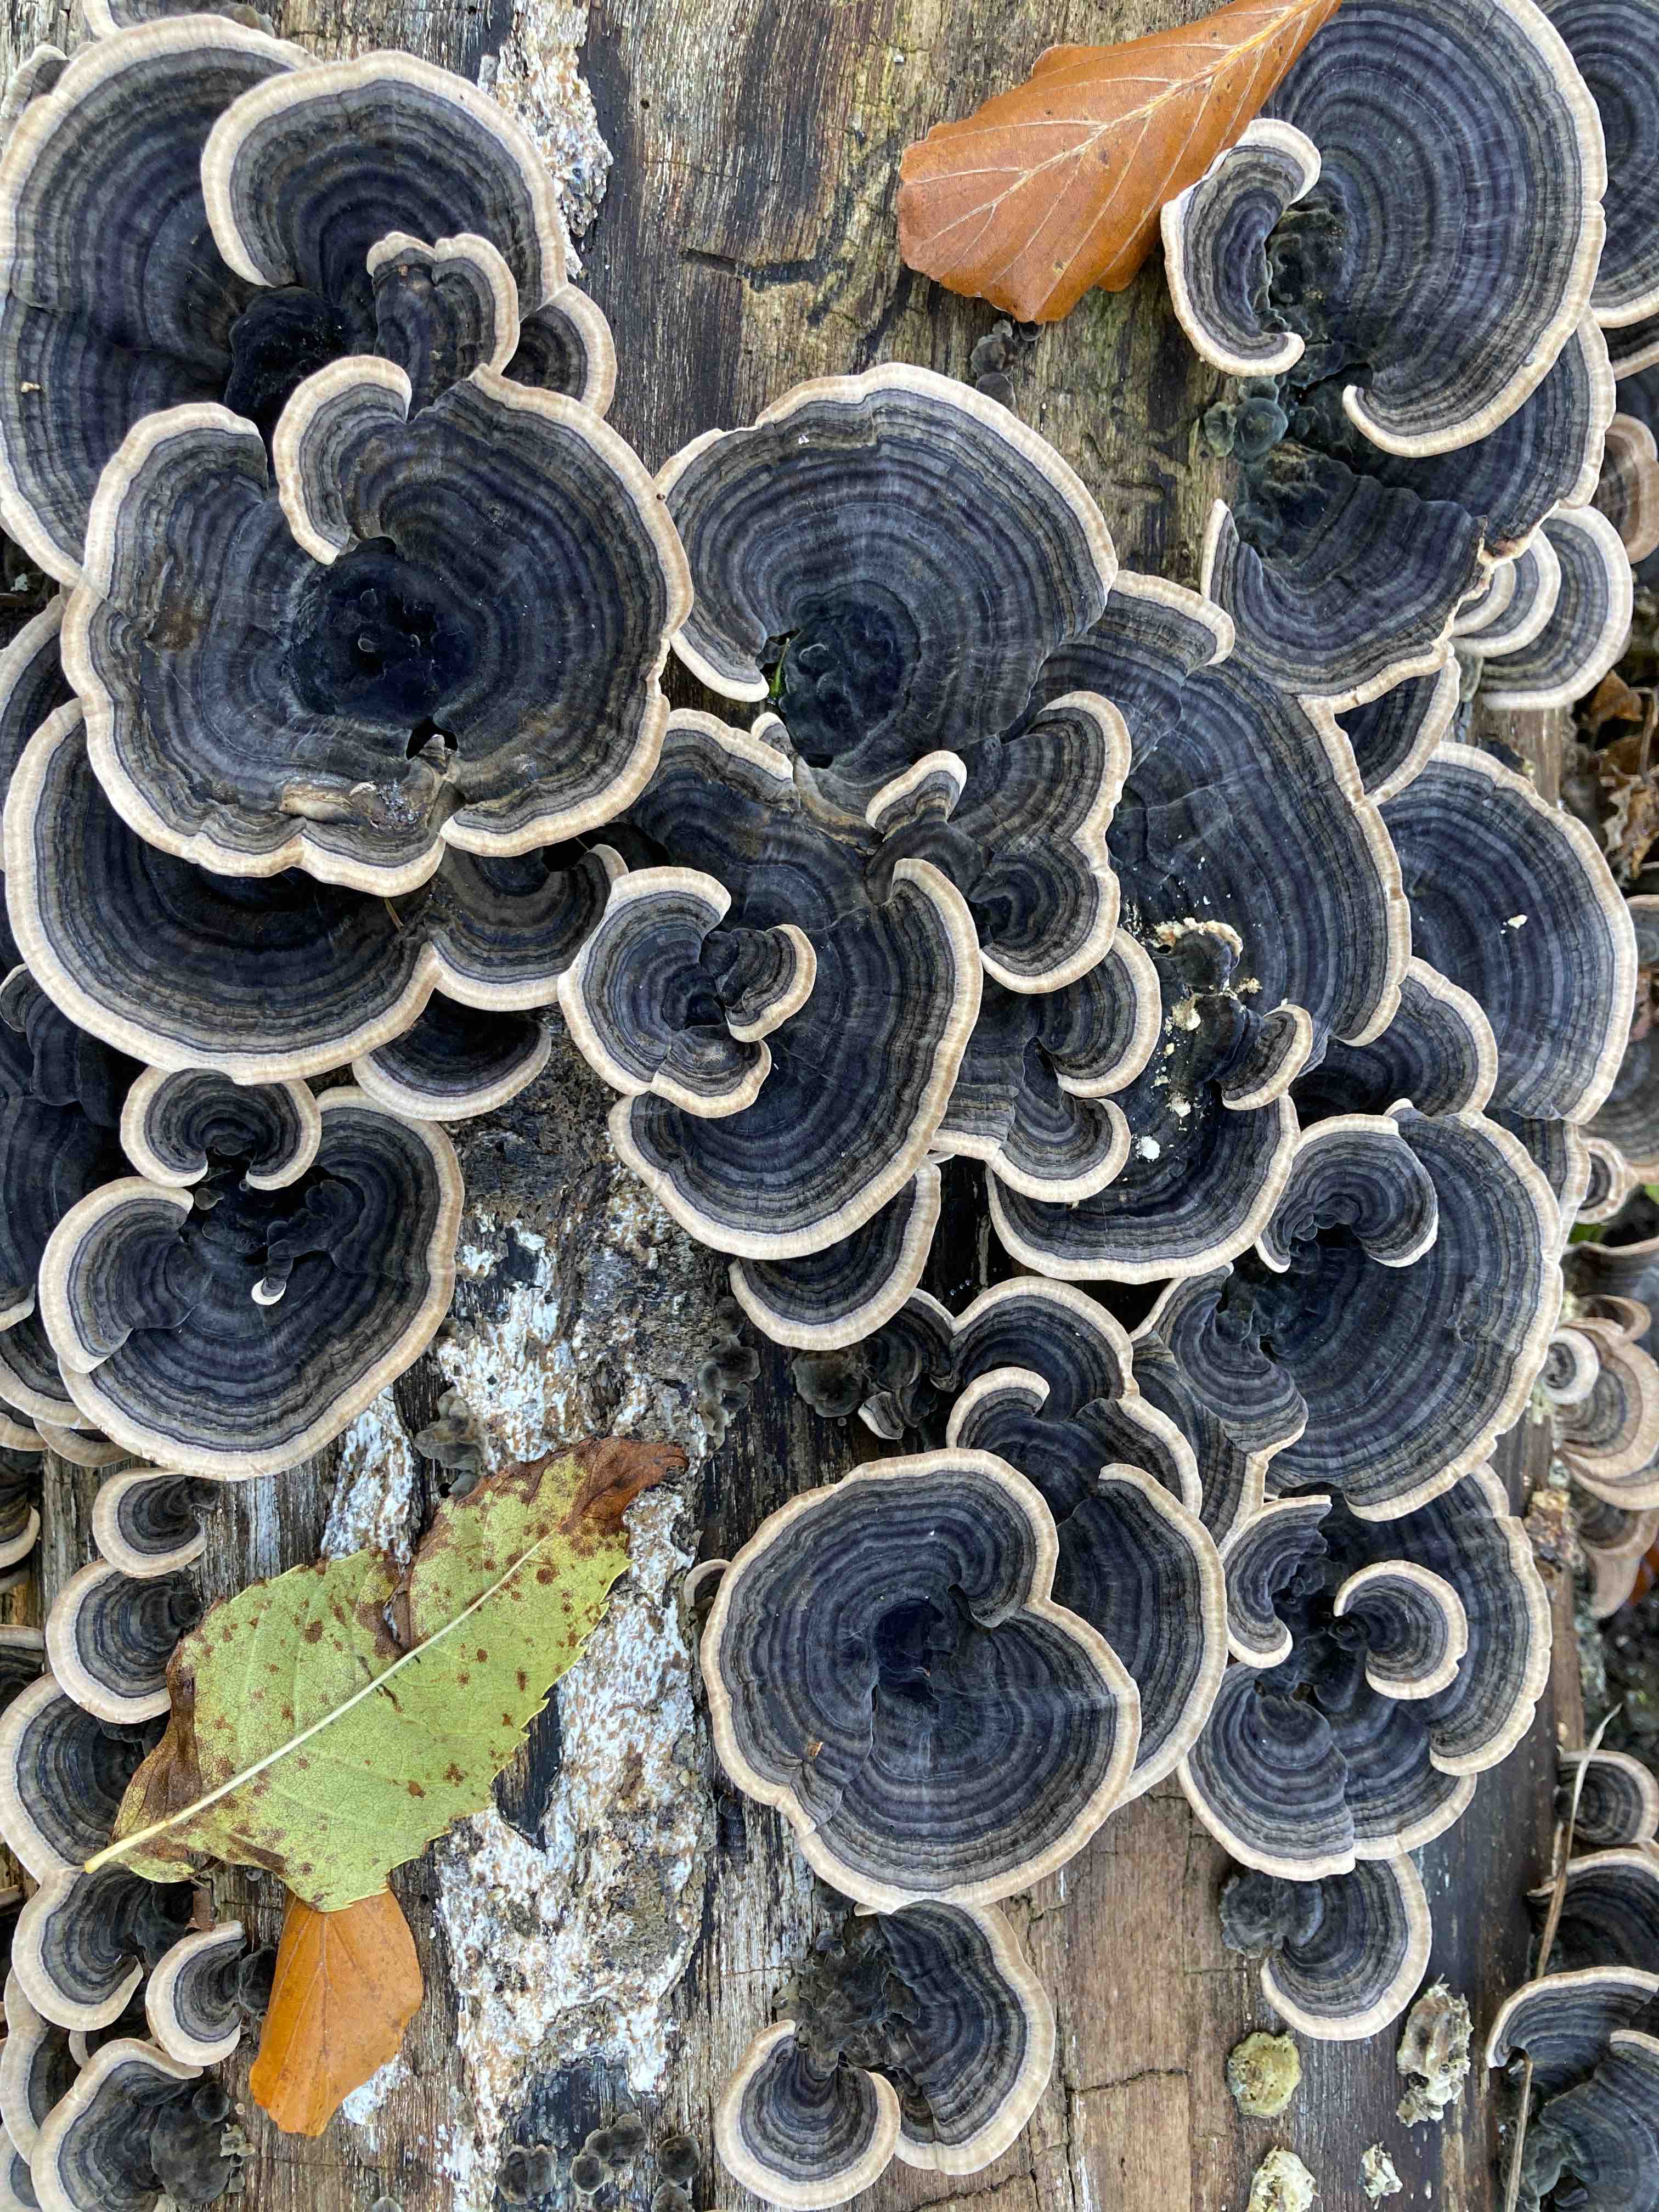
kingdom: Fungi
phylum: Basidiomycota
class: Agaricomycetes
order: Polyporales
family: Polyporaceae
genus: Trametes
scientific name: Trametes versicolor
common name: broget læderporesvamp
